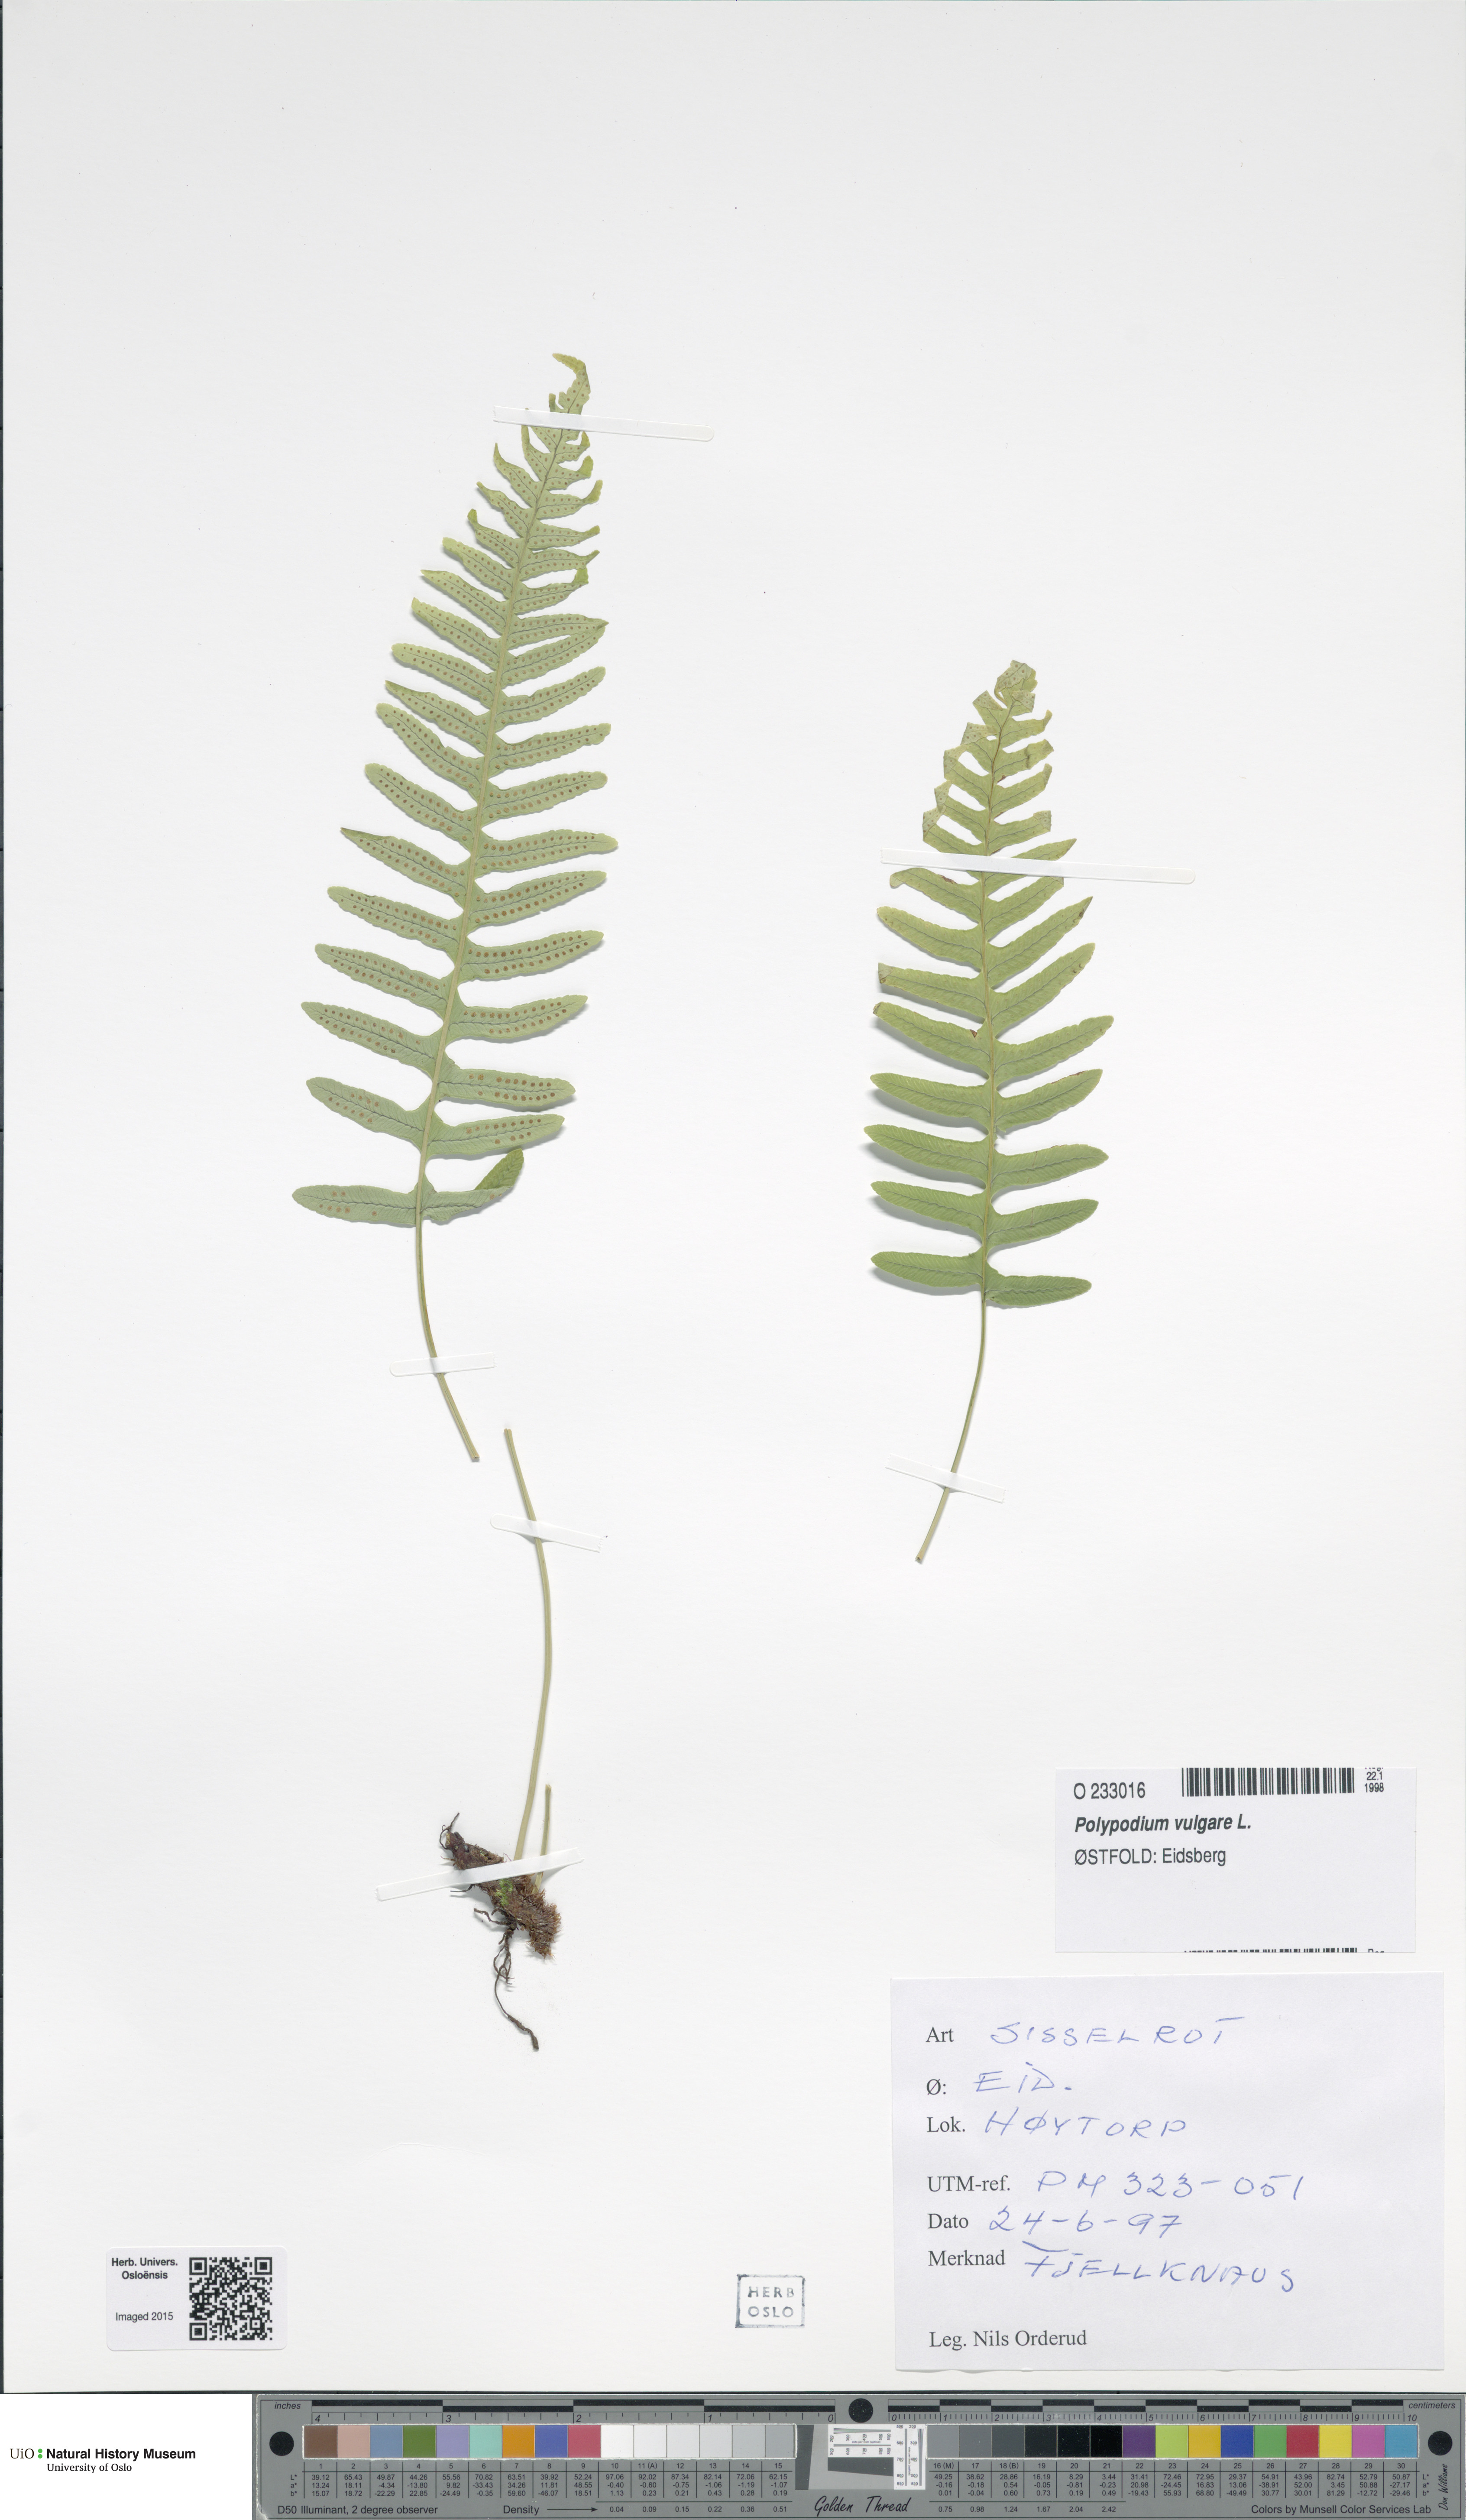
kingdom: Plantae
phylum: Tracheophyta
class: Polypodiopsida
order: Polypodiales
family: Polypodiaceae
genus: Polypodium
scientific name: Polypodium vulgare
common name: Common polypody
